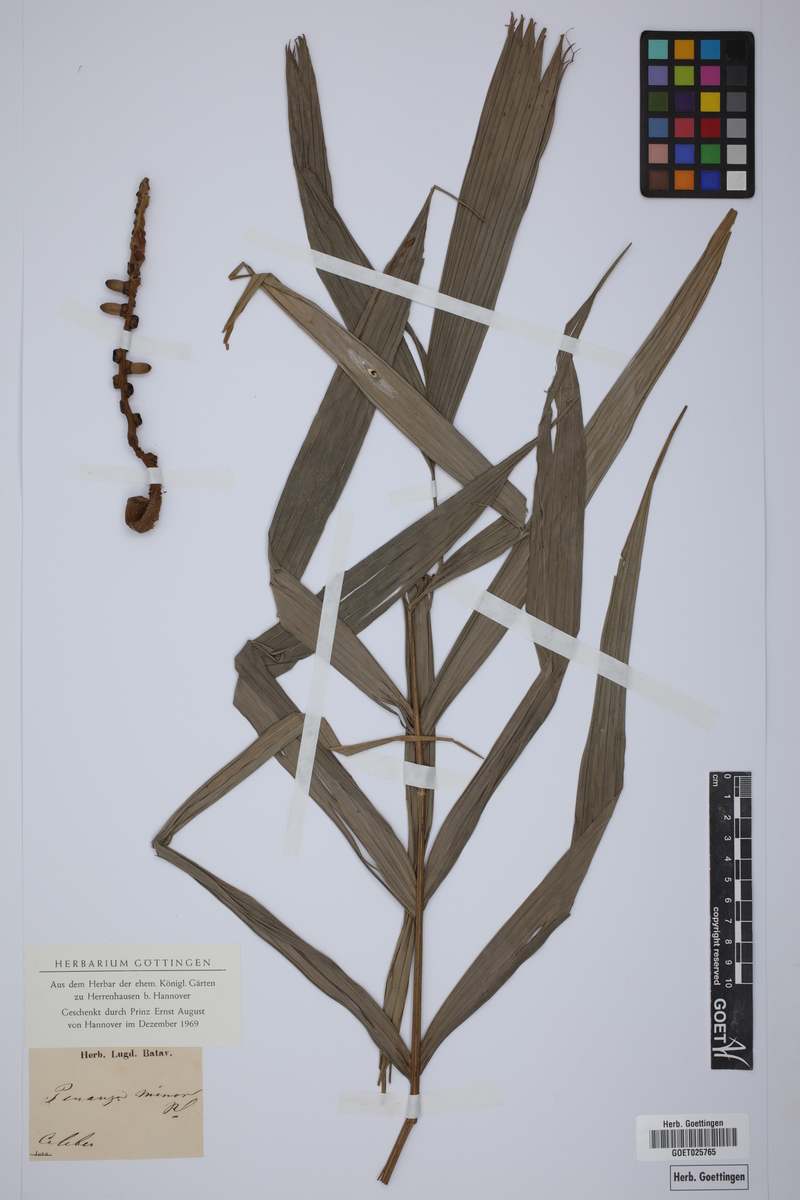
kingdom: Plantae
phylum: Tracheophyta
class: Liliopsida
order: Arecales
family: Arecaceae
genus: Pinanga
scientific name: Pinanga minor
